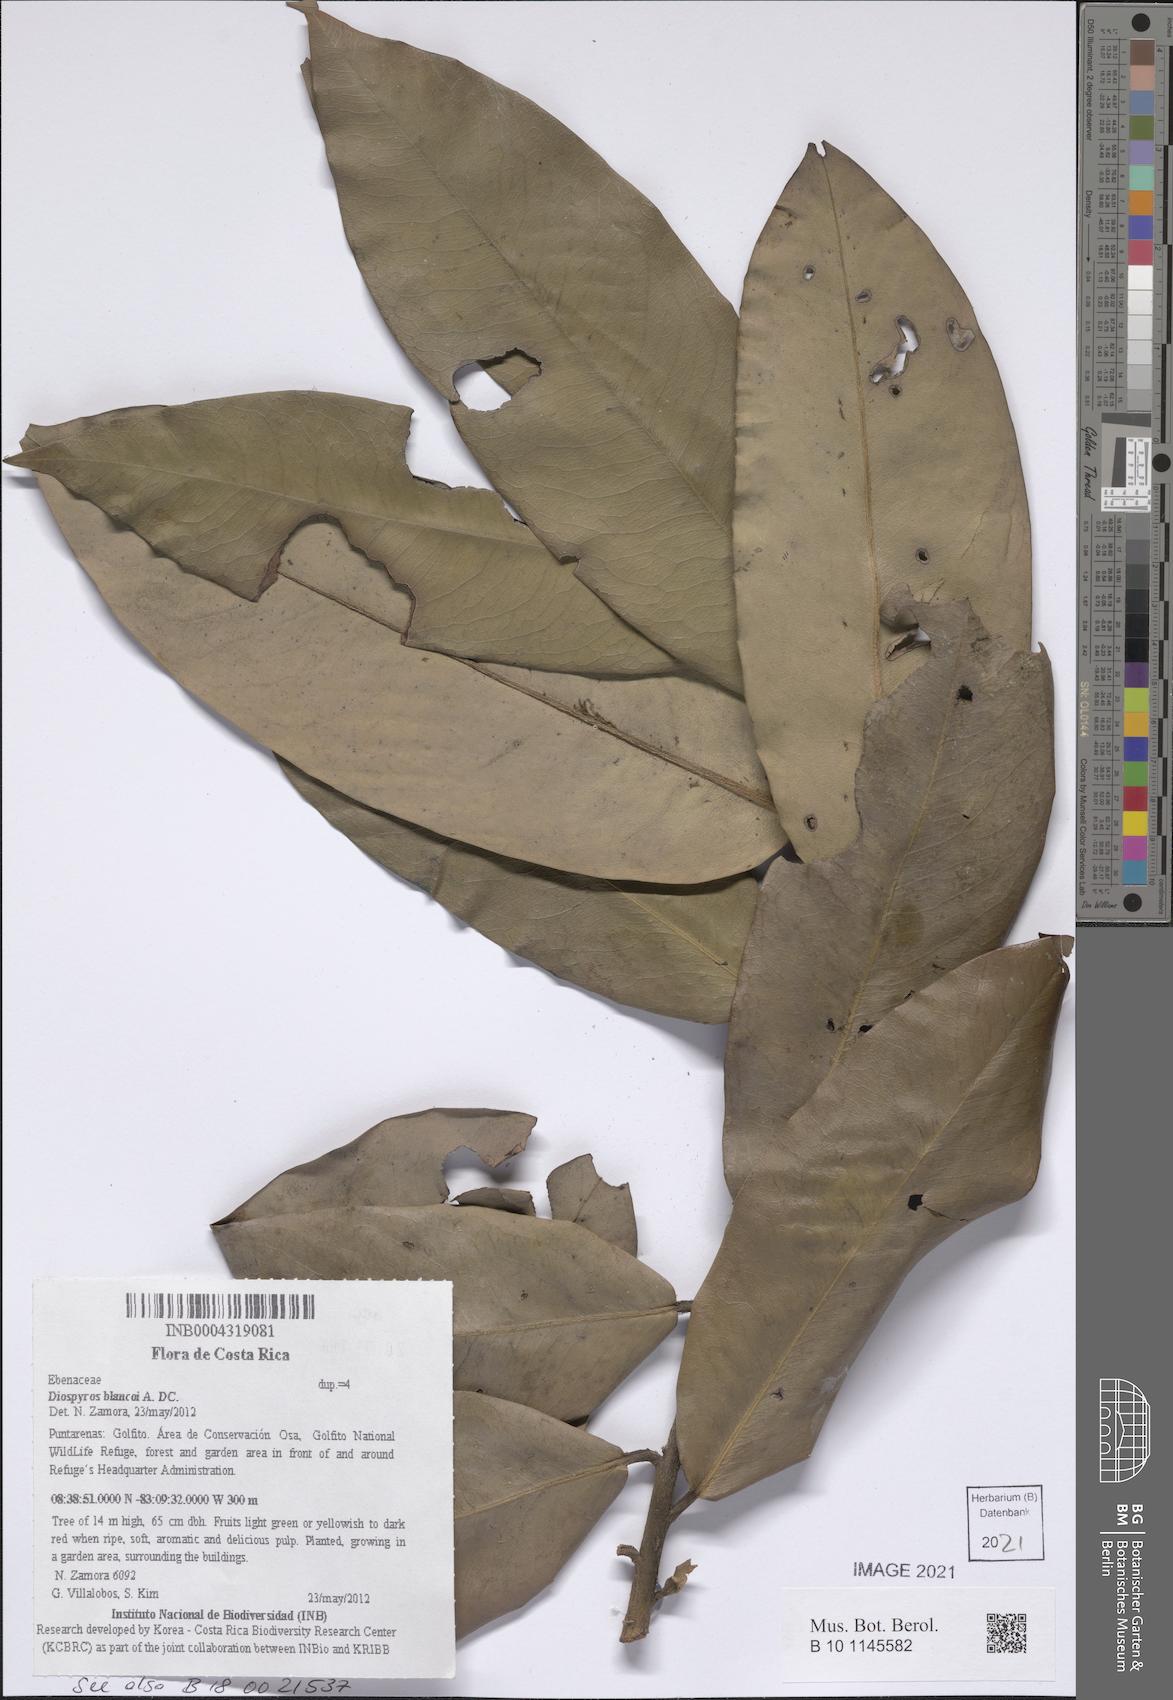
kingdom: Plantae
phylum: Tracheophyta
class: Magnoliopsida
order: Ericales
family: Ebenaceae
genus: Diospyros
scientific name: Diospyros blancoi
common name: Mabola-tree
